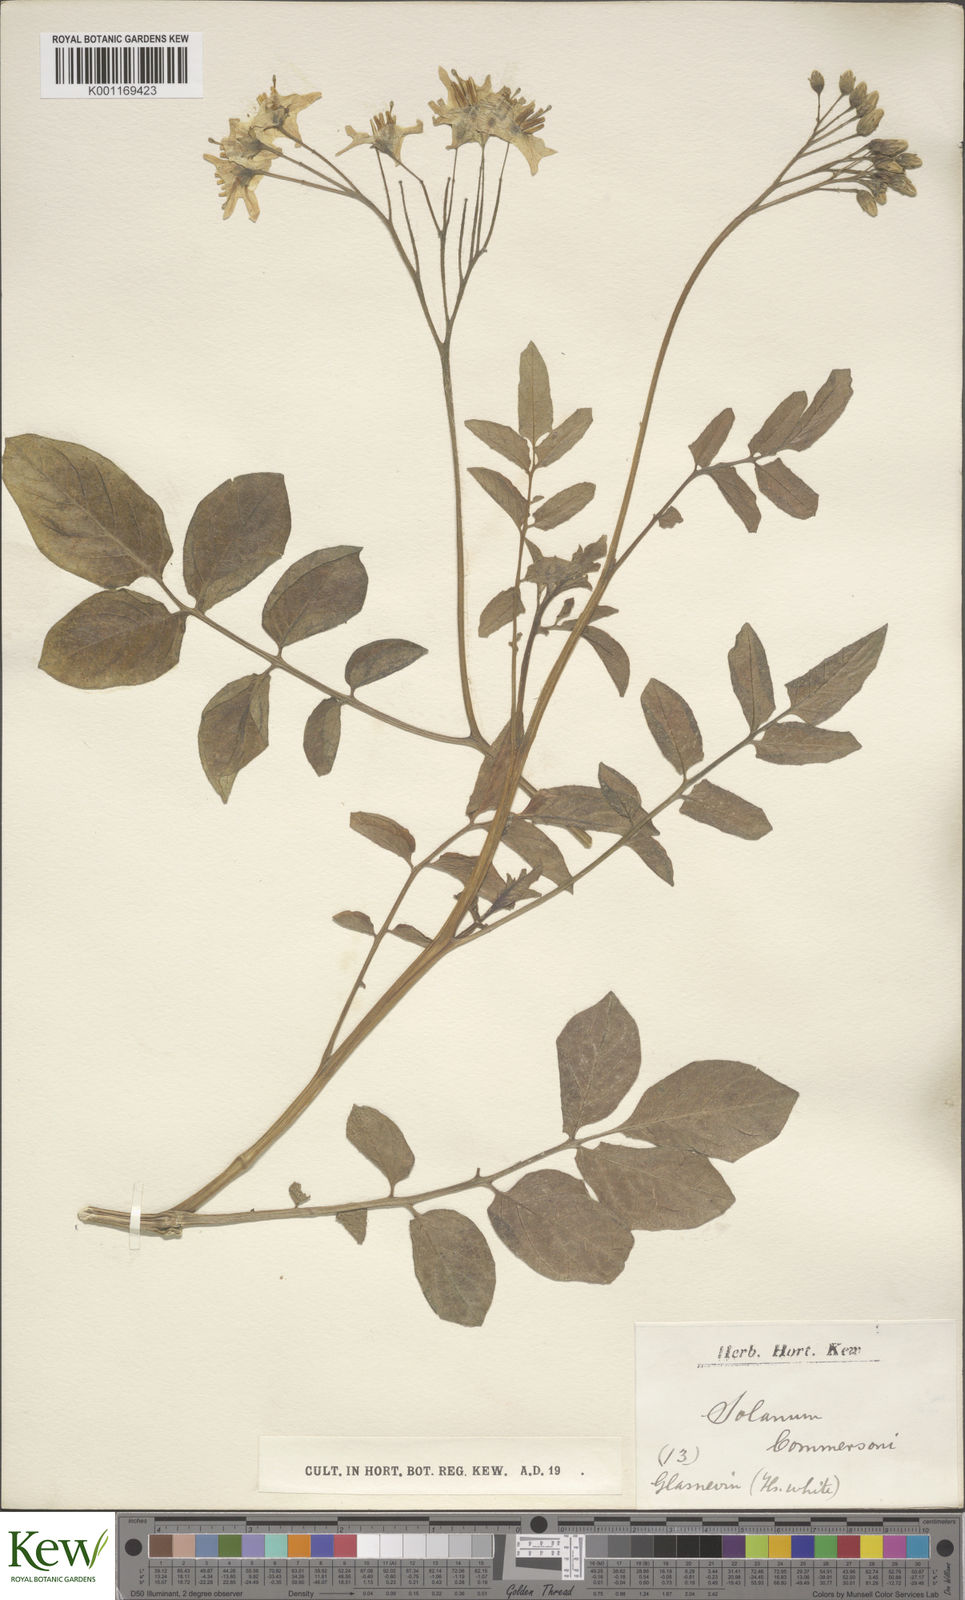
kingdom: Plantae
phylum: Tracheophyta
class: Magnoliopsida
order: Solanales
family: Solanaceae
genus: Solanum
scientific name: Solanum commersonii
